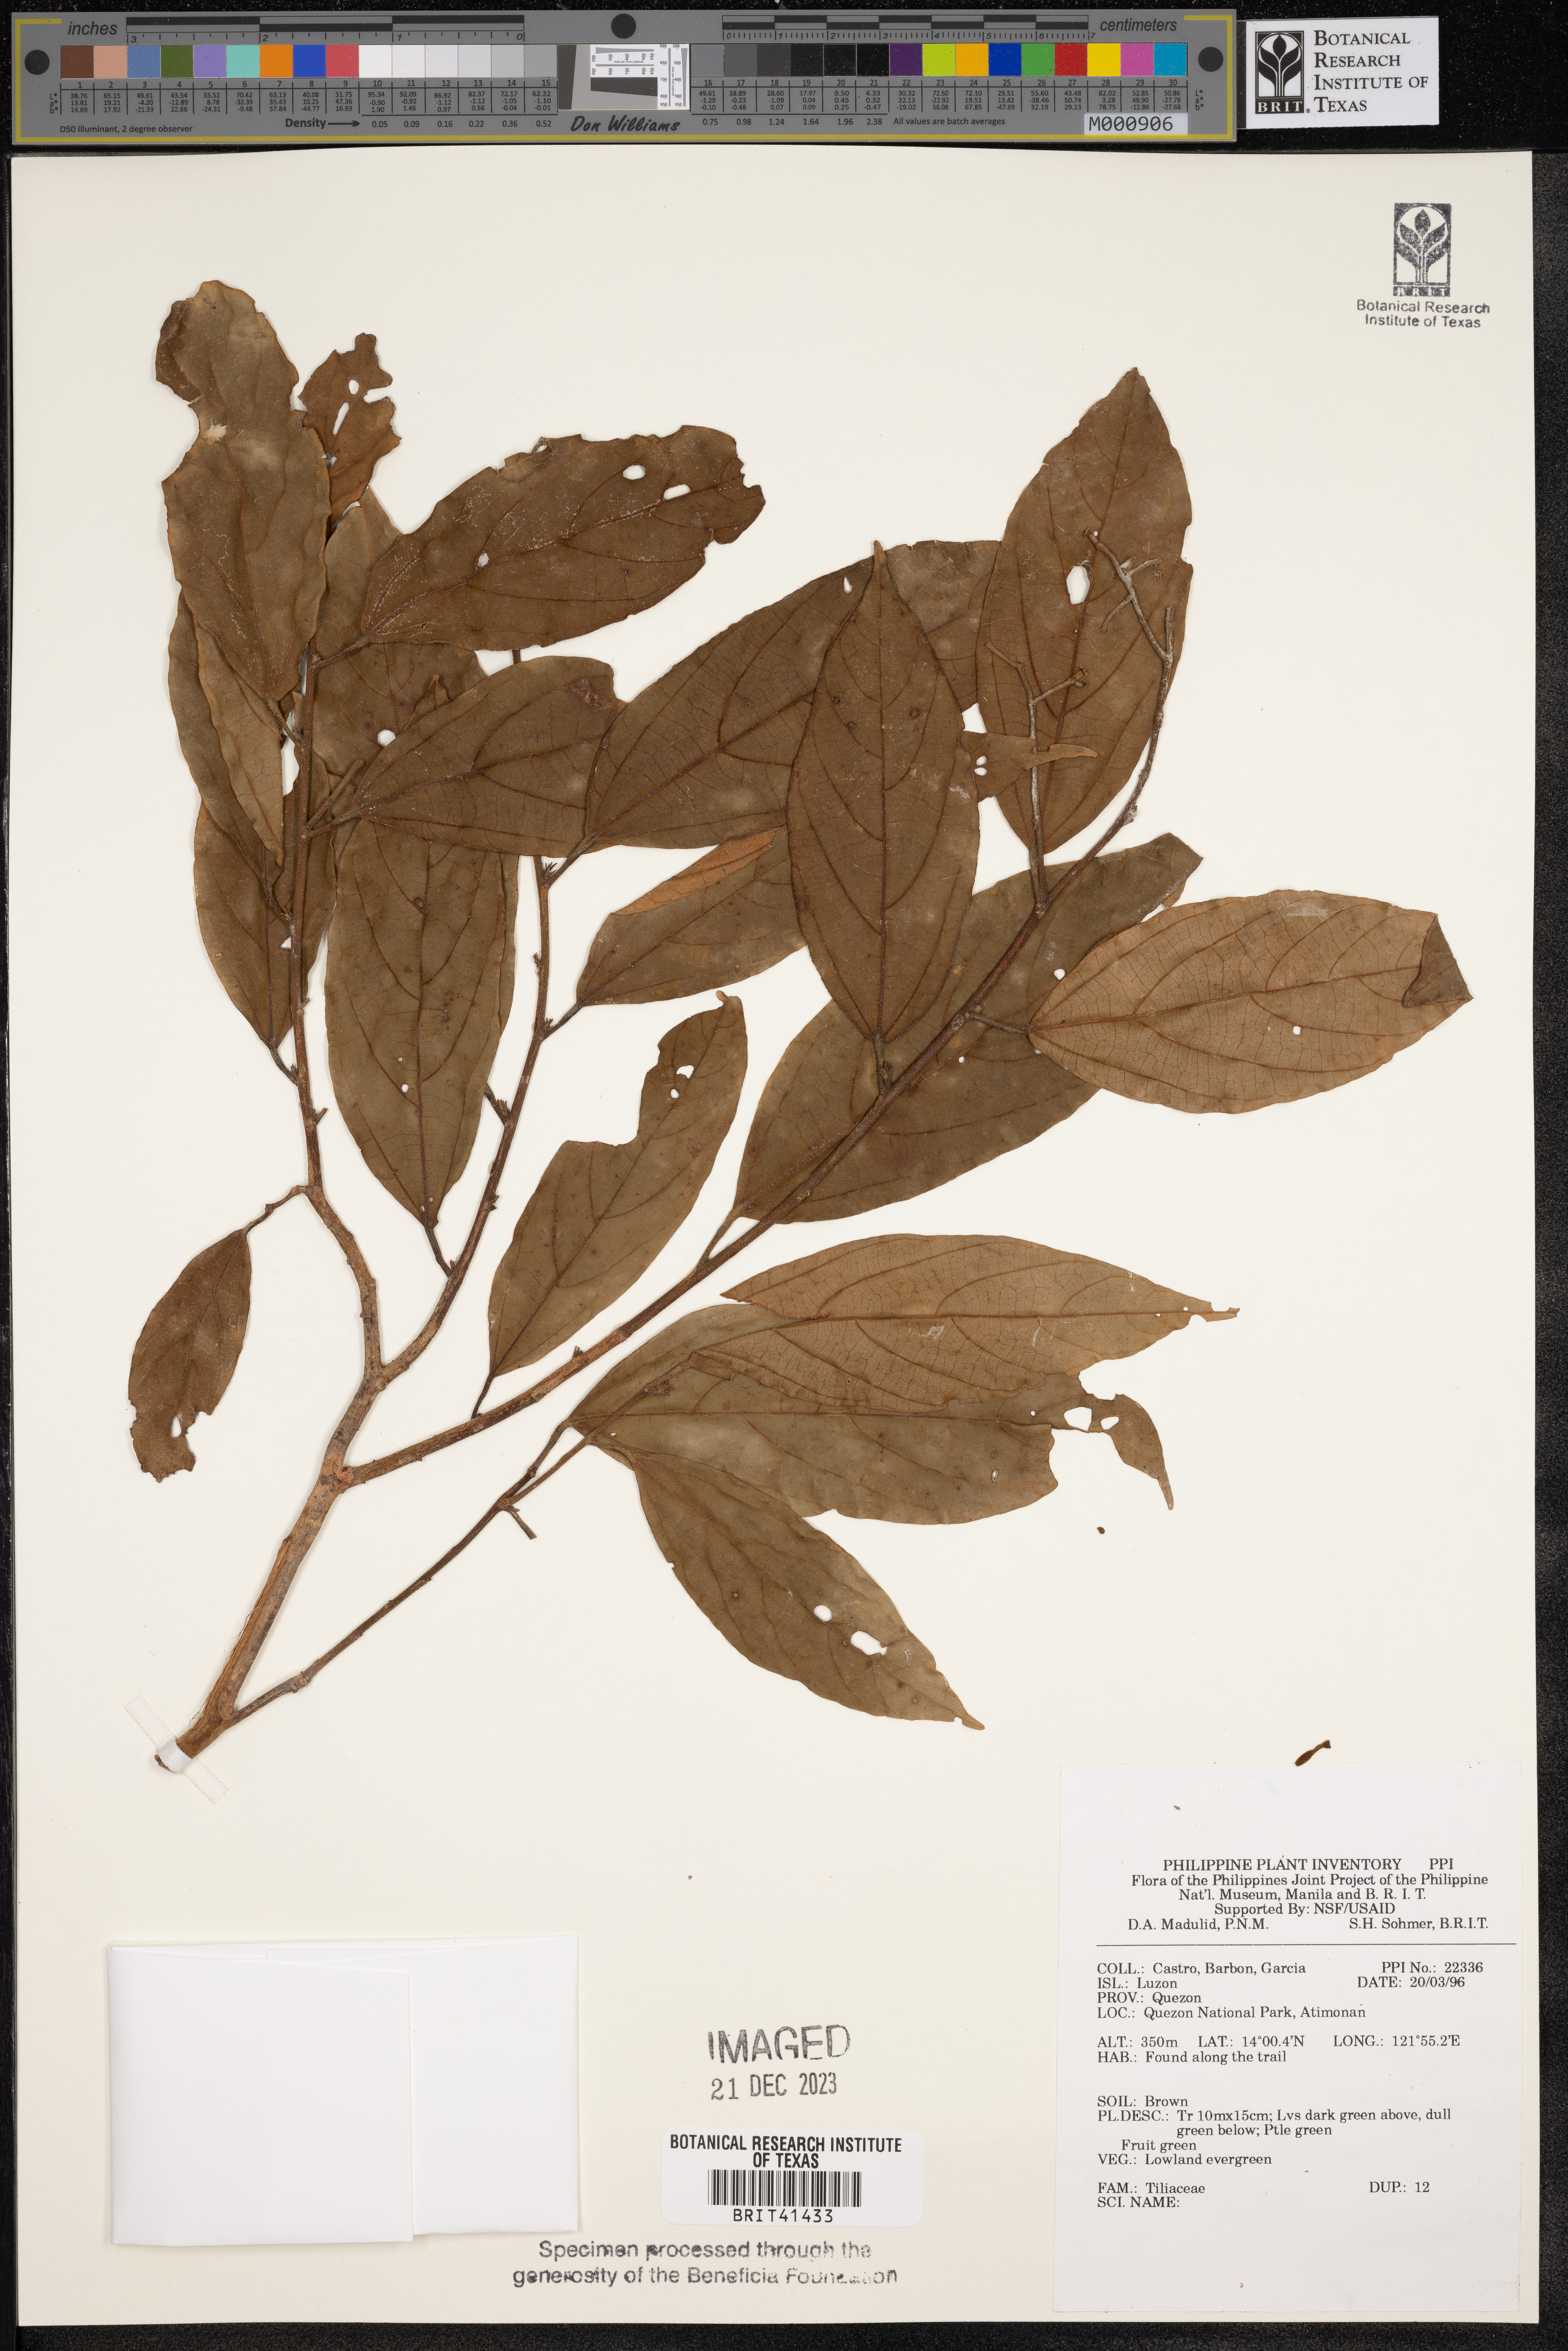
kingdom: Plantae
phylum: Tracheophyta
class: Magnoliopsida
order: Malvales
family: Tiliaceae
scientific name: Tiliaceae
